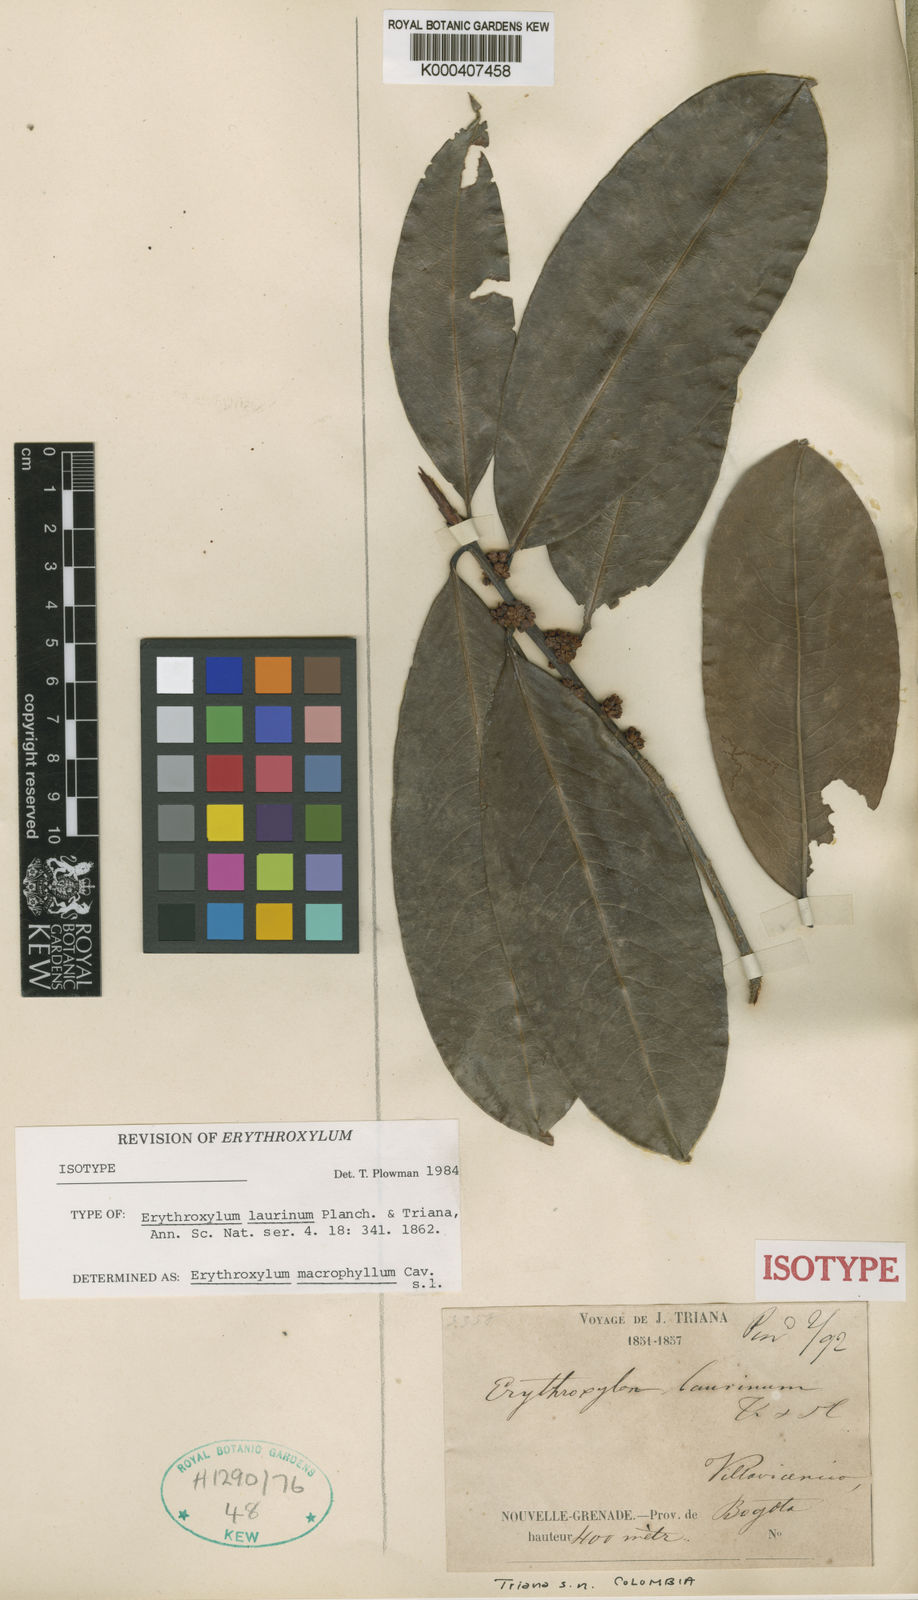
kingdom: Plantae
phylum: Tracheophyta
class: Magnoliopsida
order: Malpighiales
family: Erythroxylaceae
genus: Erythroxylum
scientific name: Erythroxylum macrophyllum
